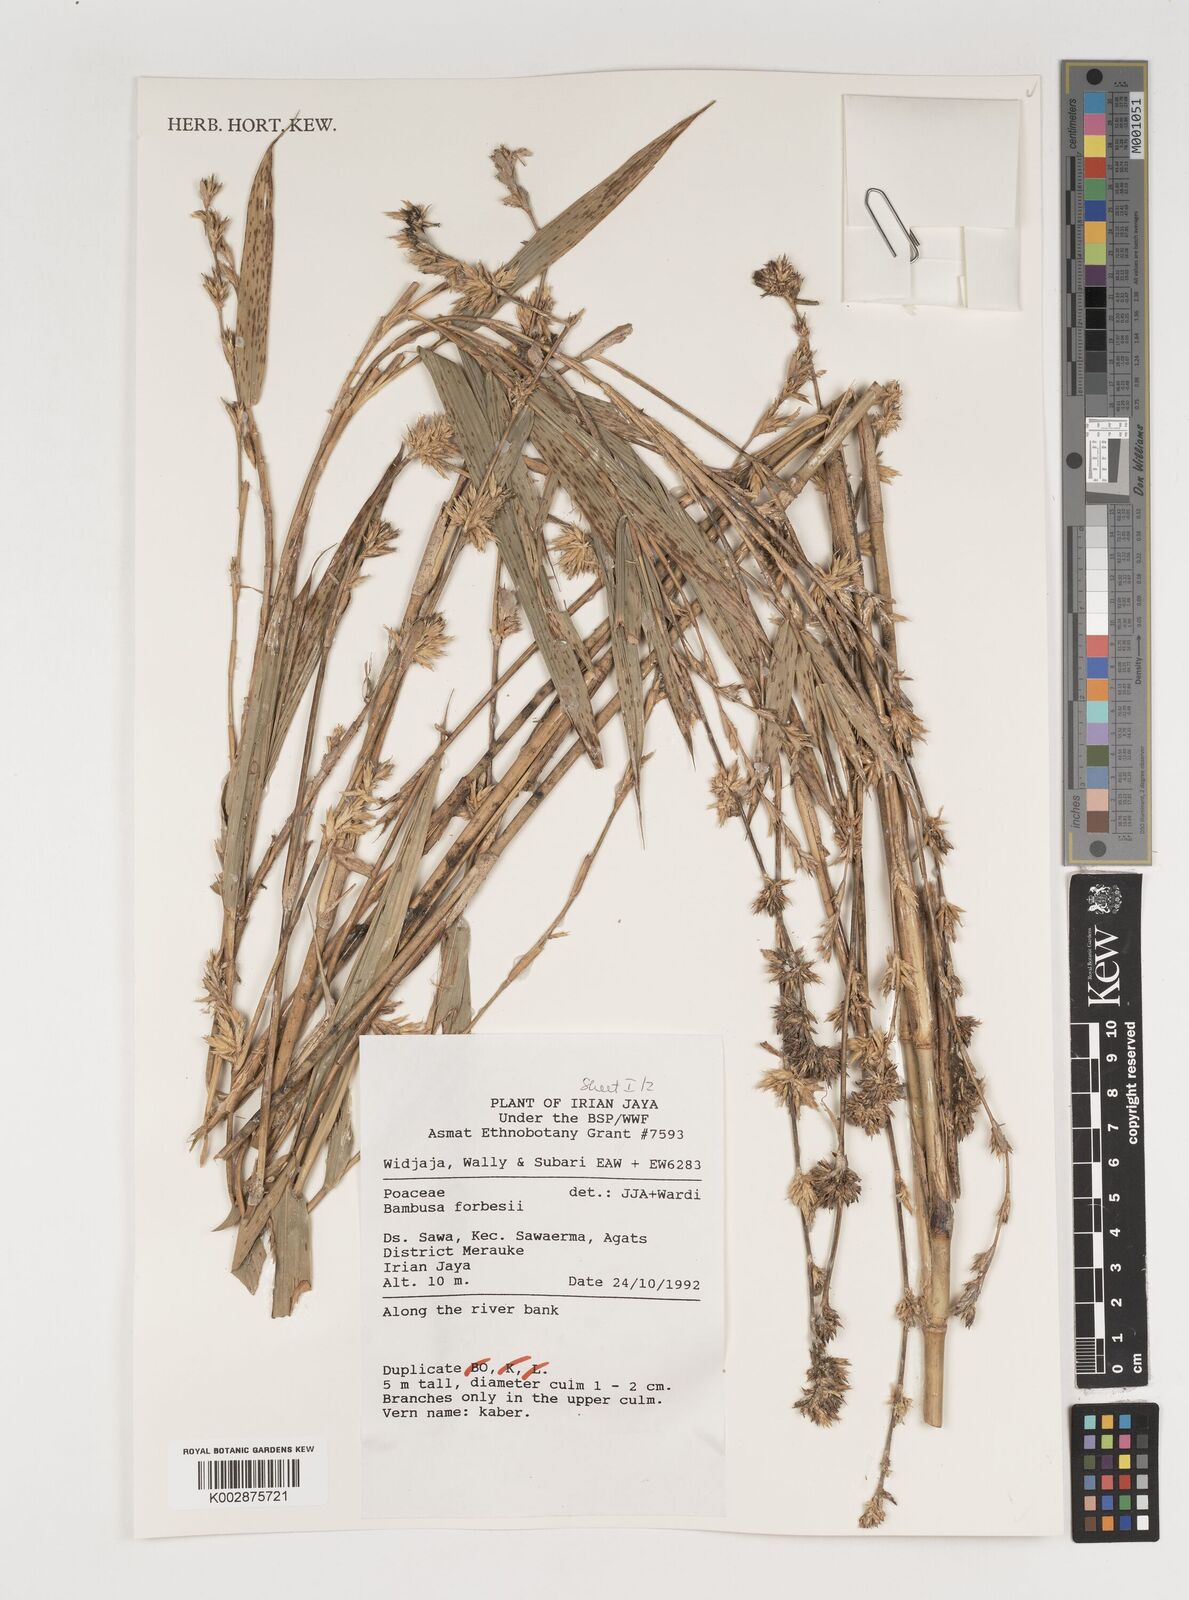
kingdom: Plantae
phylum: Tracheophyta
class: Liliopsida
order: Poales
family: Poaceae
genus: Neololeba
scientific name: Neololeba atra
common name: Cape bamboo
